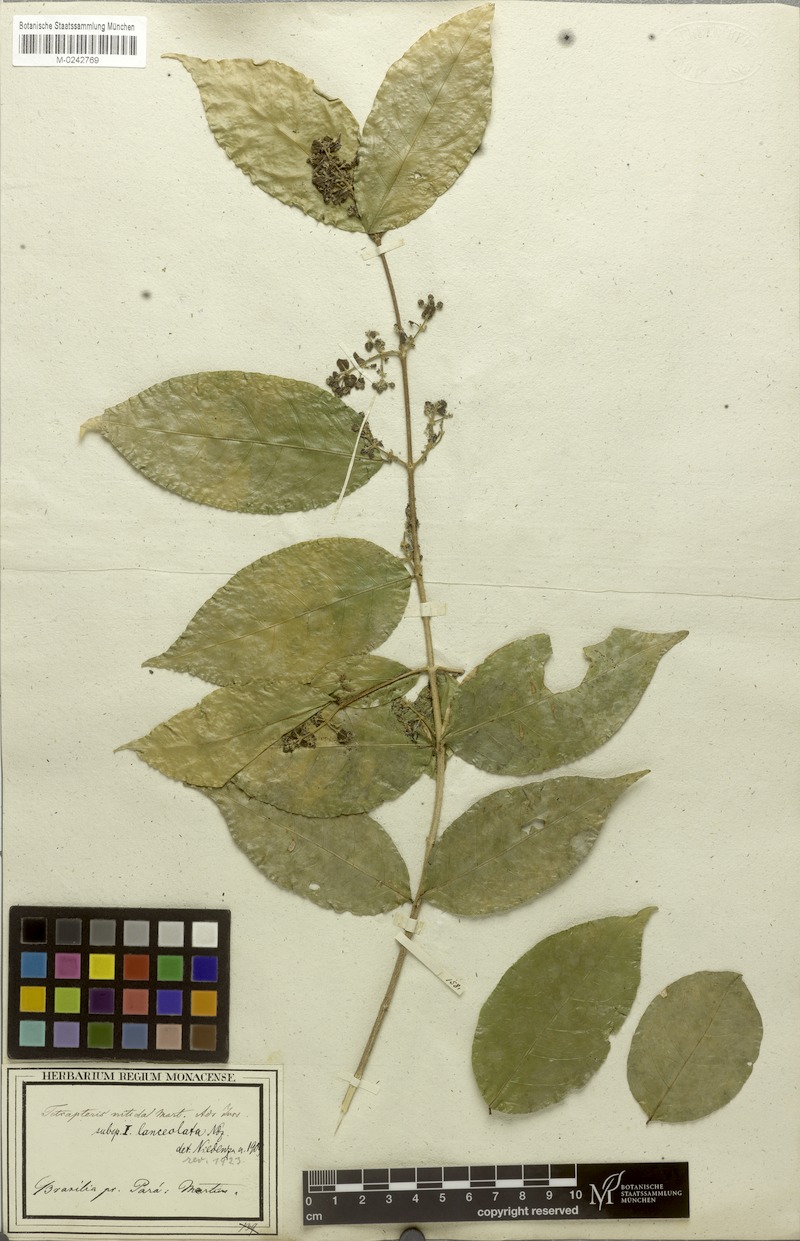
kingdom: Plantae
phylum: Tracheophyta
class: Magnoliopsida
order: Malpighiales
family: Malpighiaceae
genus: Tetrapterys
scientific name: Tetrapterys nitida
